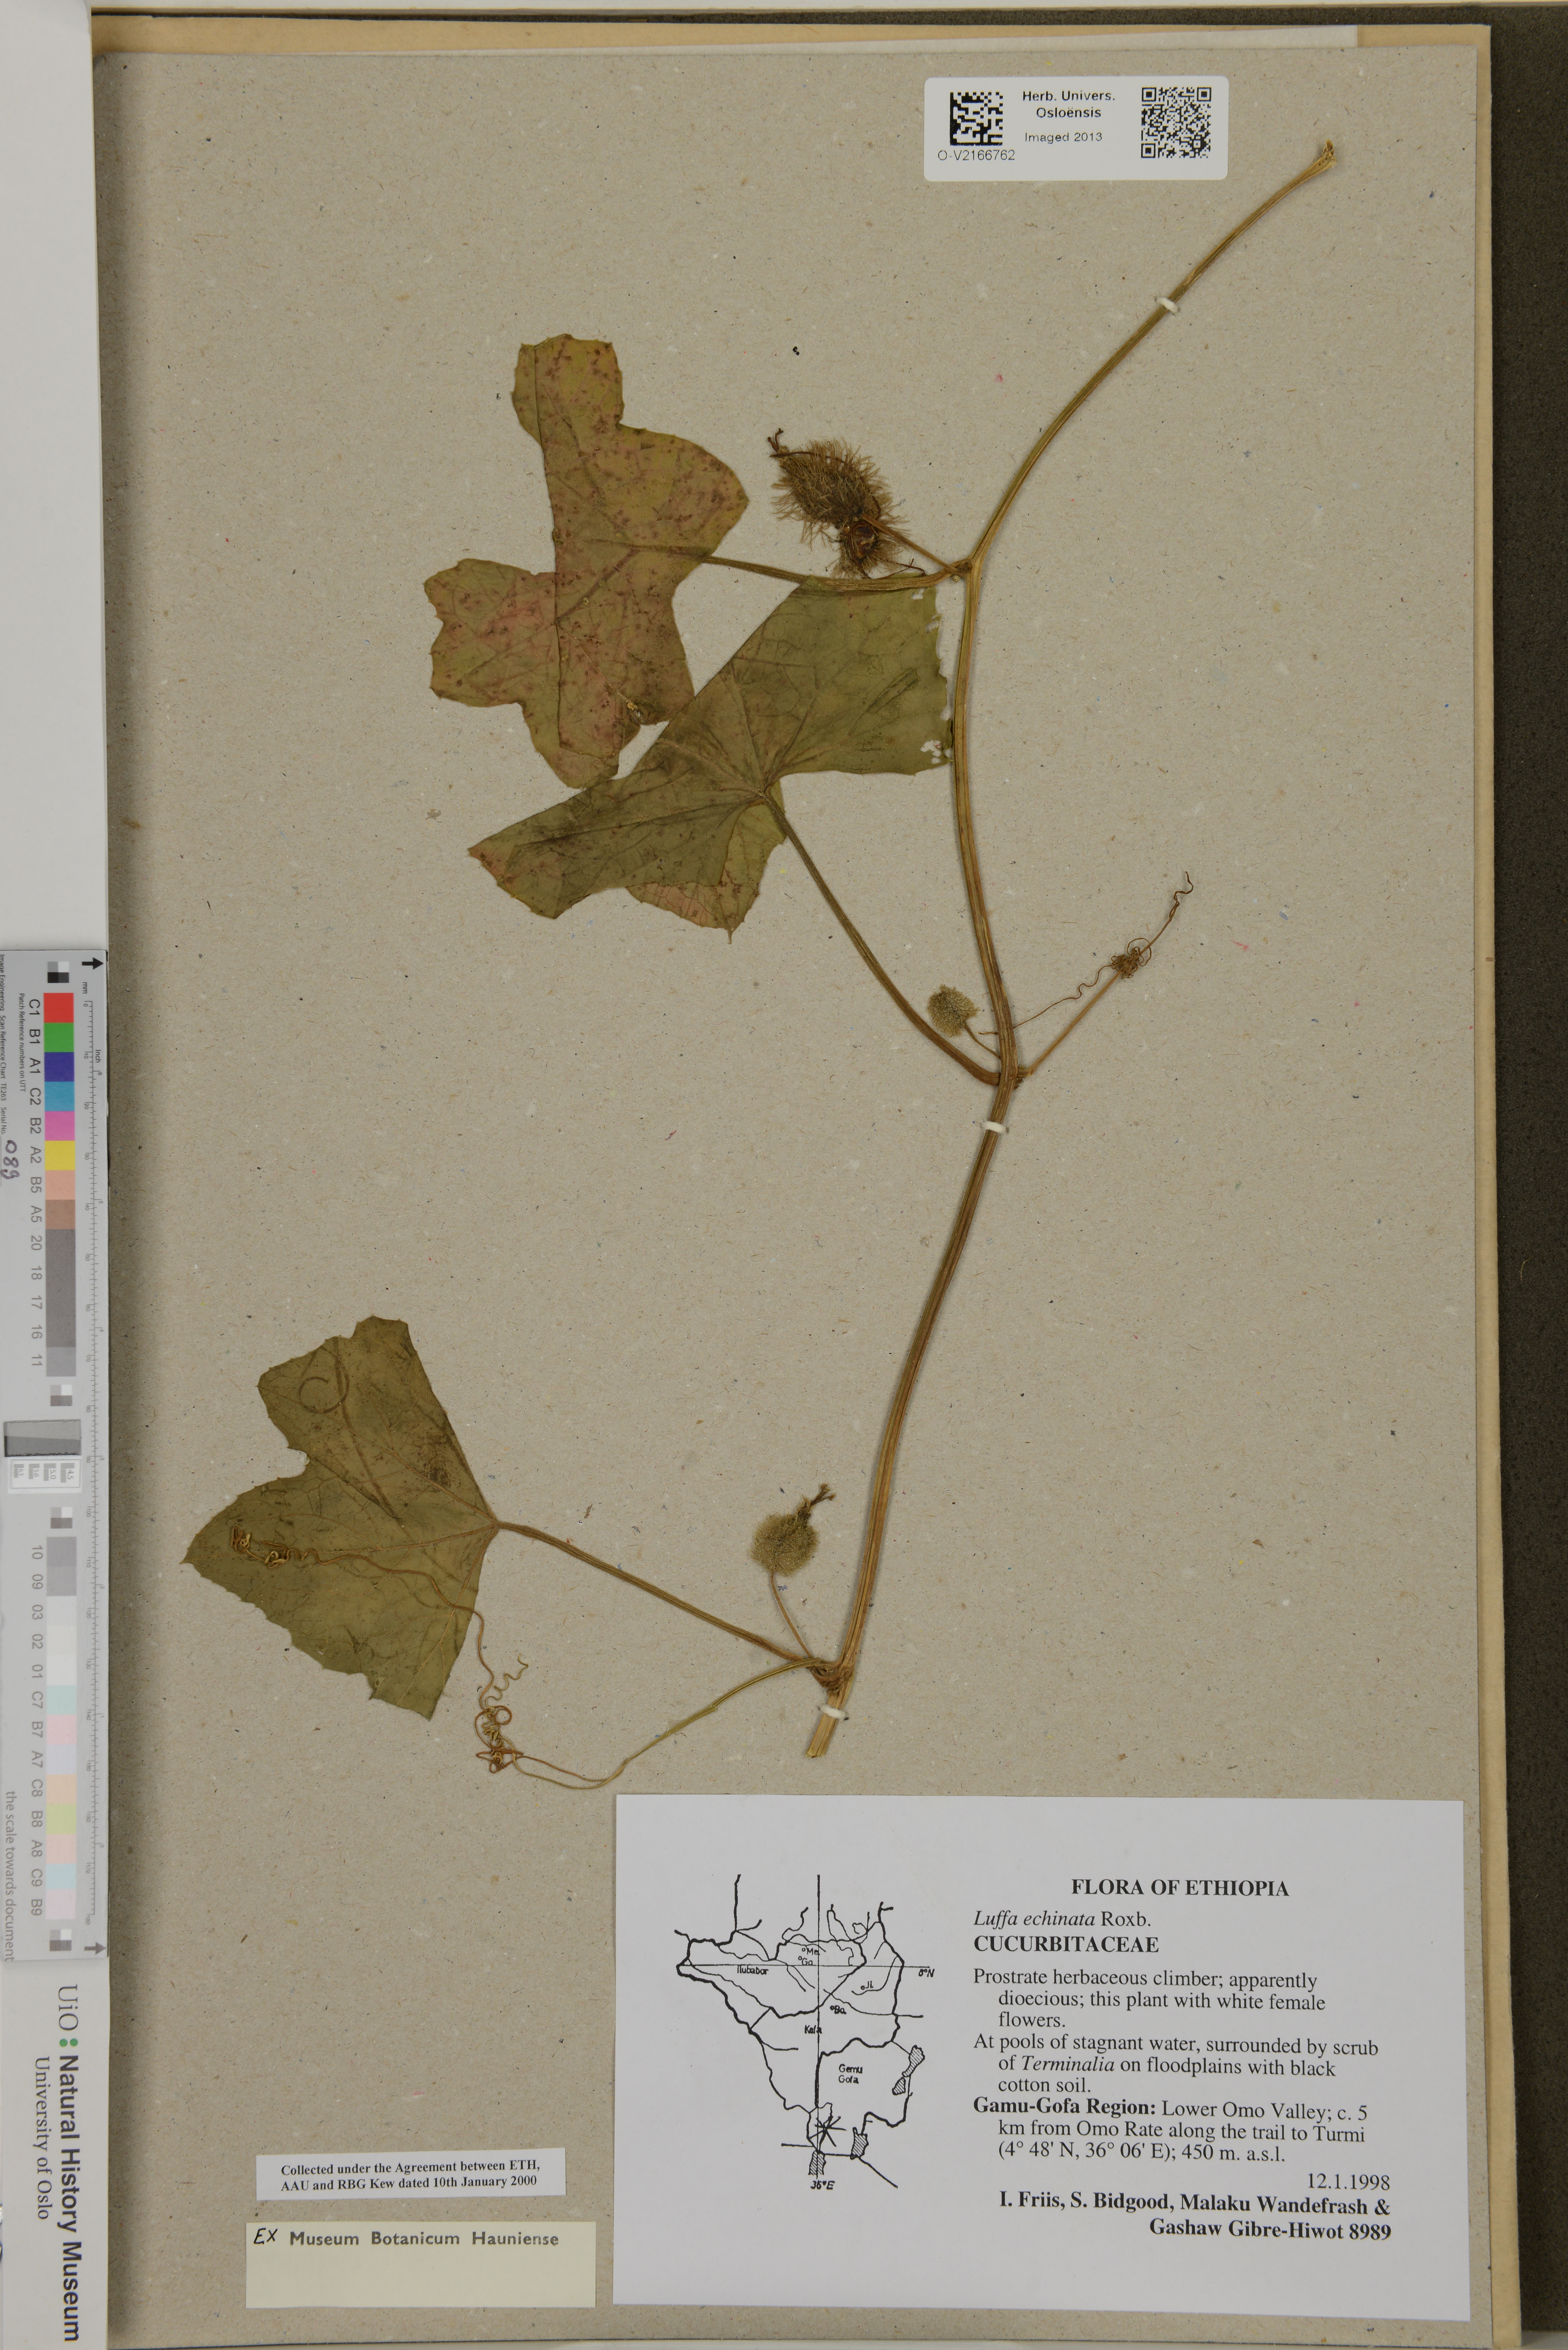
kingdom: Plantae
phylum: Tracheophyta
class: Magnoliopsida
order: Cucurbitales
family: Cucurbitaceae
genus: Luffa
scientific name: Luffa echinata
